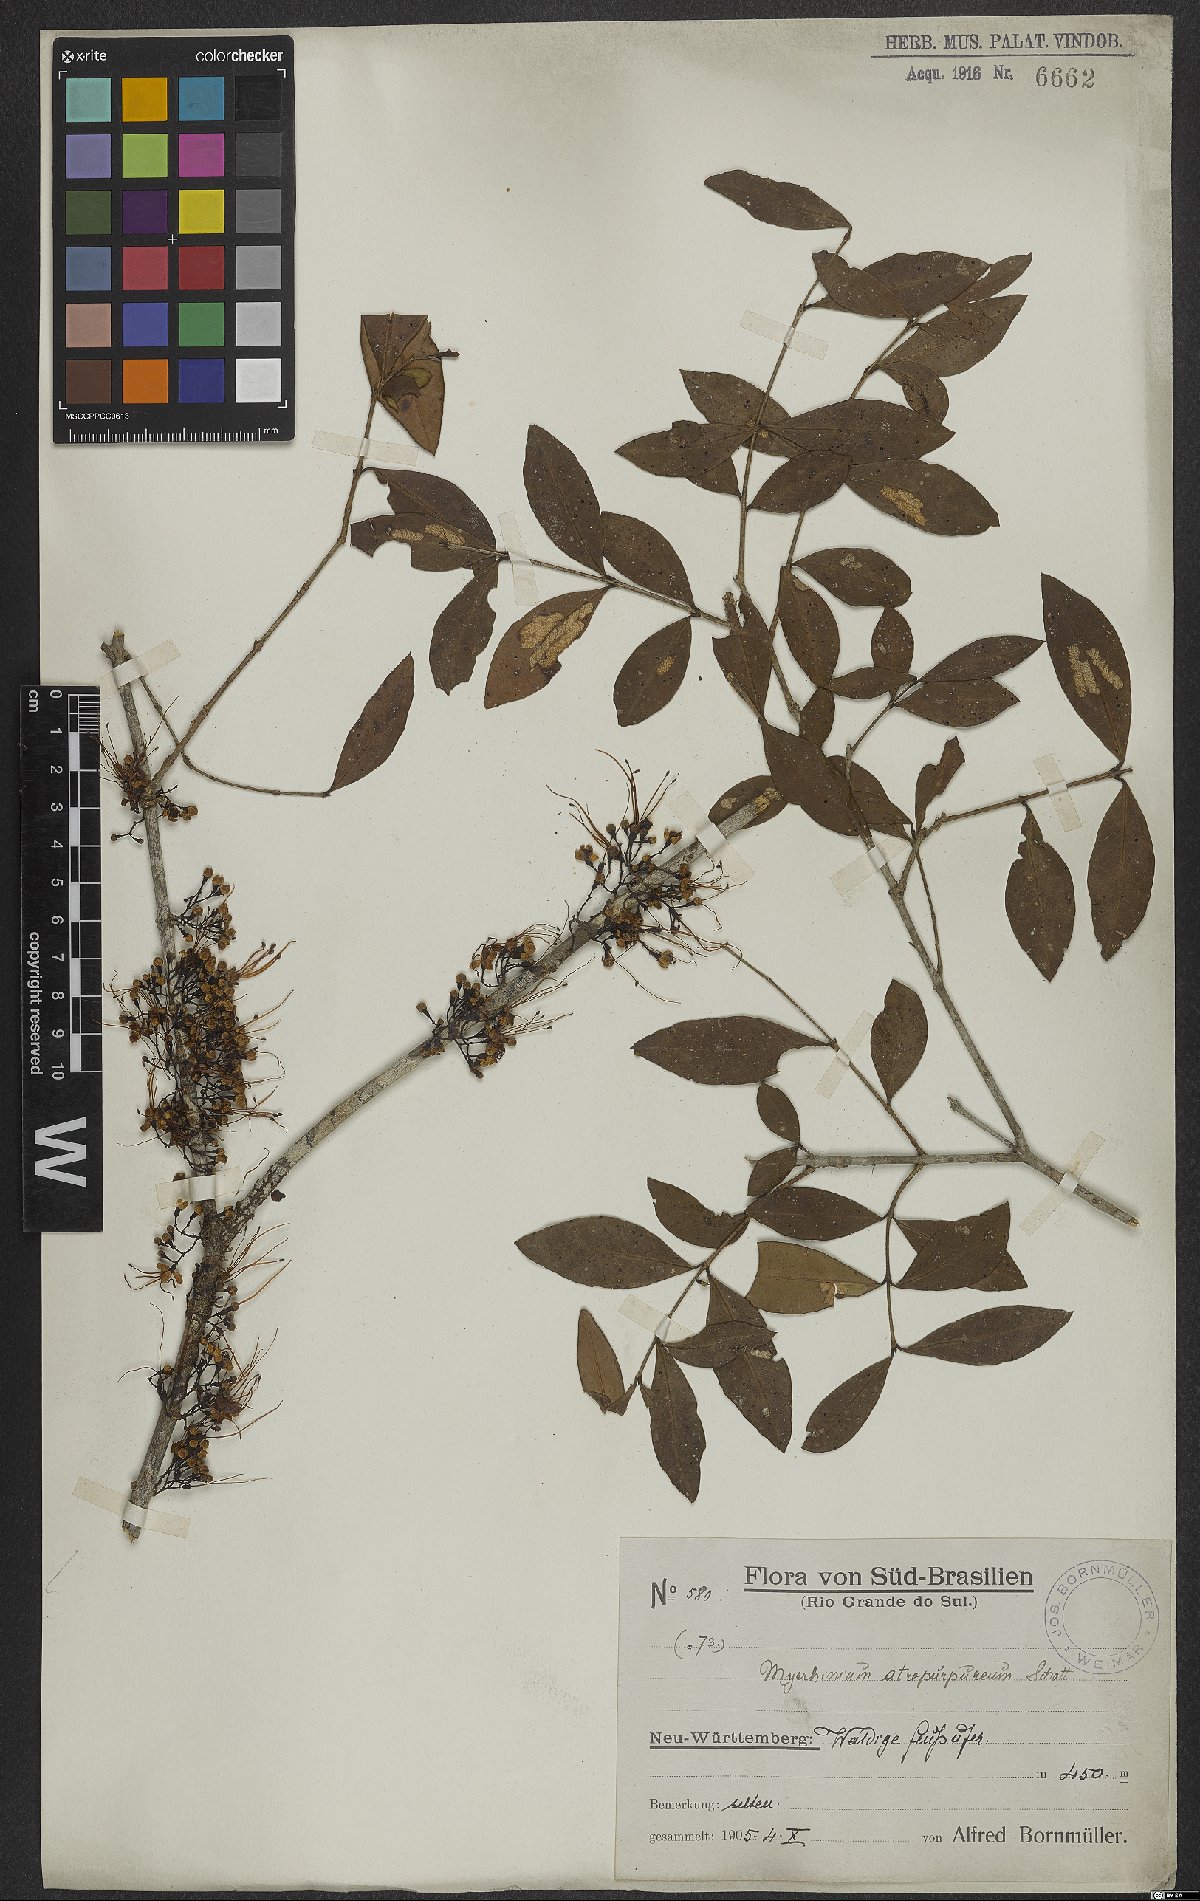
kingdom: Plantae
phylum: Tracheophyta
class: Magnoliopsida
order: Myrtales
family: Myrtaceae
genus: Myrrhinium
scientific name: Myrrhinium atropurpureum
